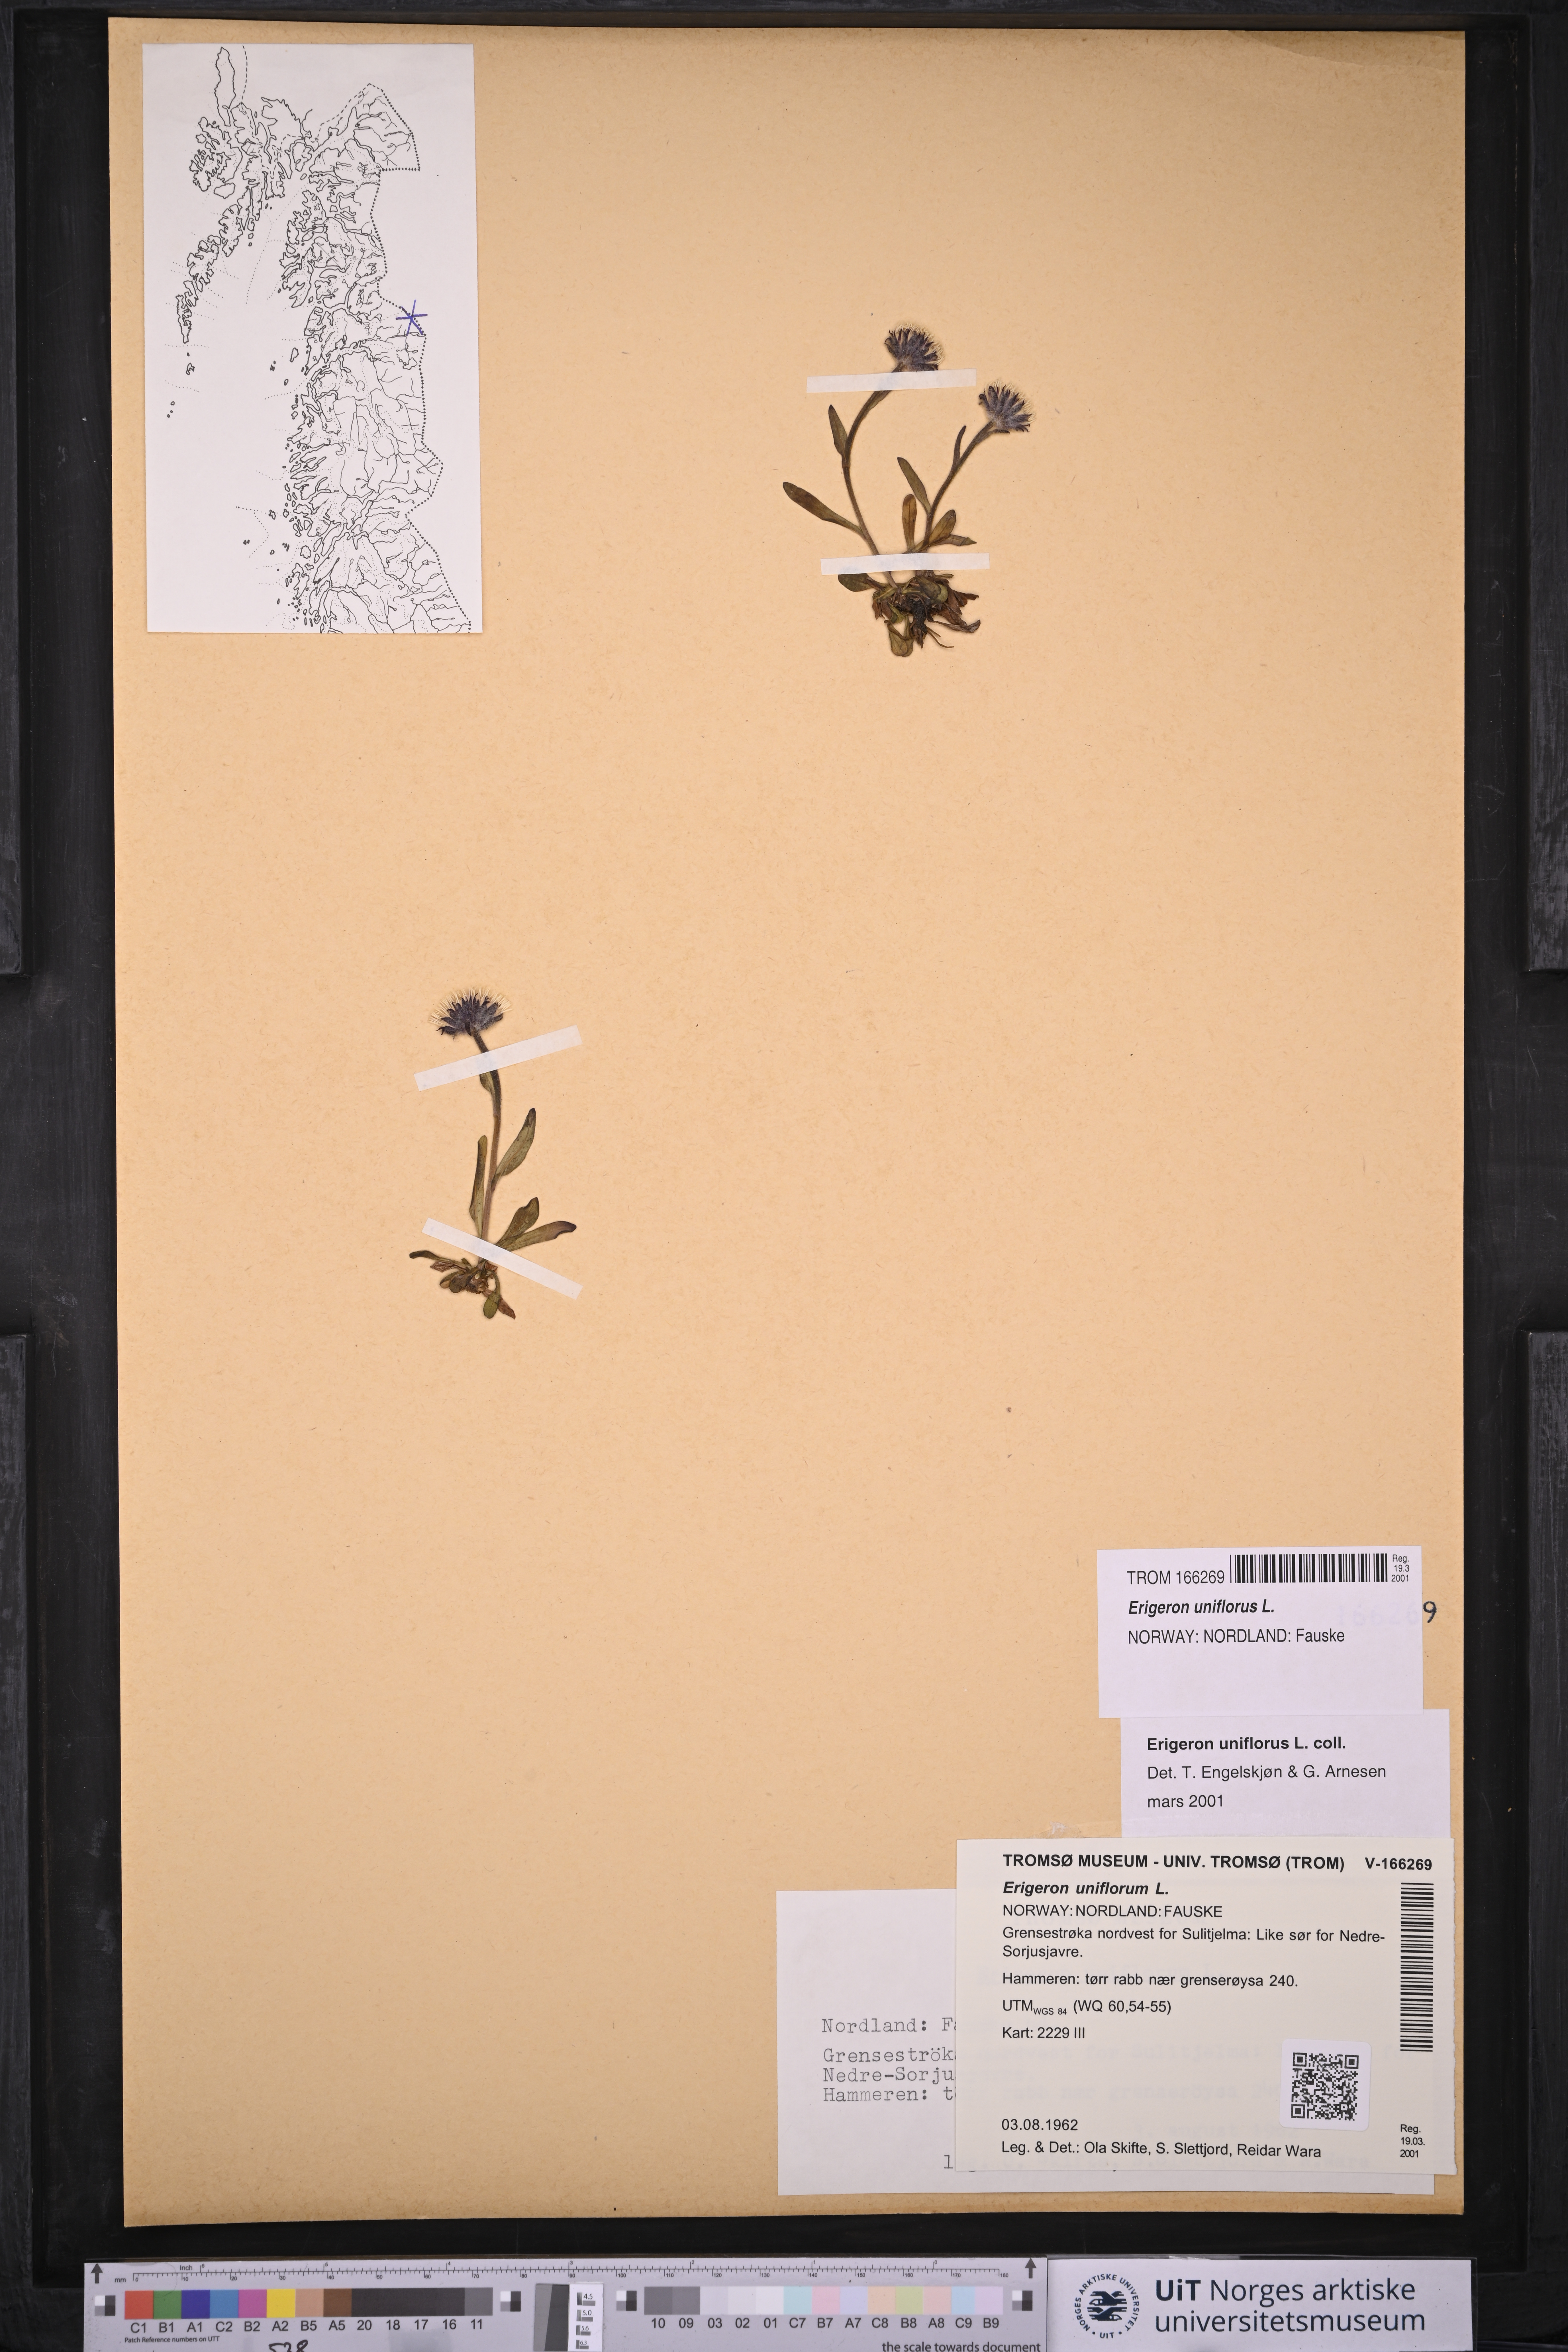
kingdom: Plantae
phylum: Tracheophyta
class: Magnoliopsida
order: Asterales
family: Asteraceae
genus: Erigeron
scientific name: Erigeron uniflorus
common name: Northern daisy
